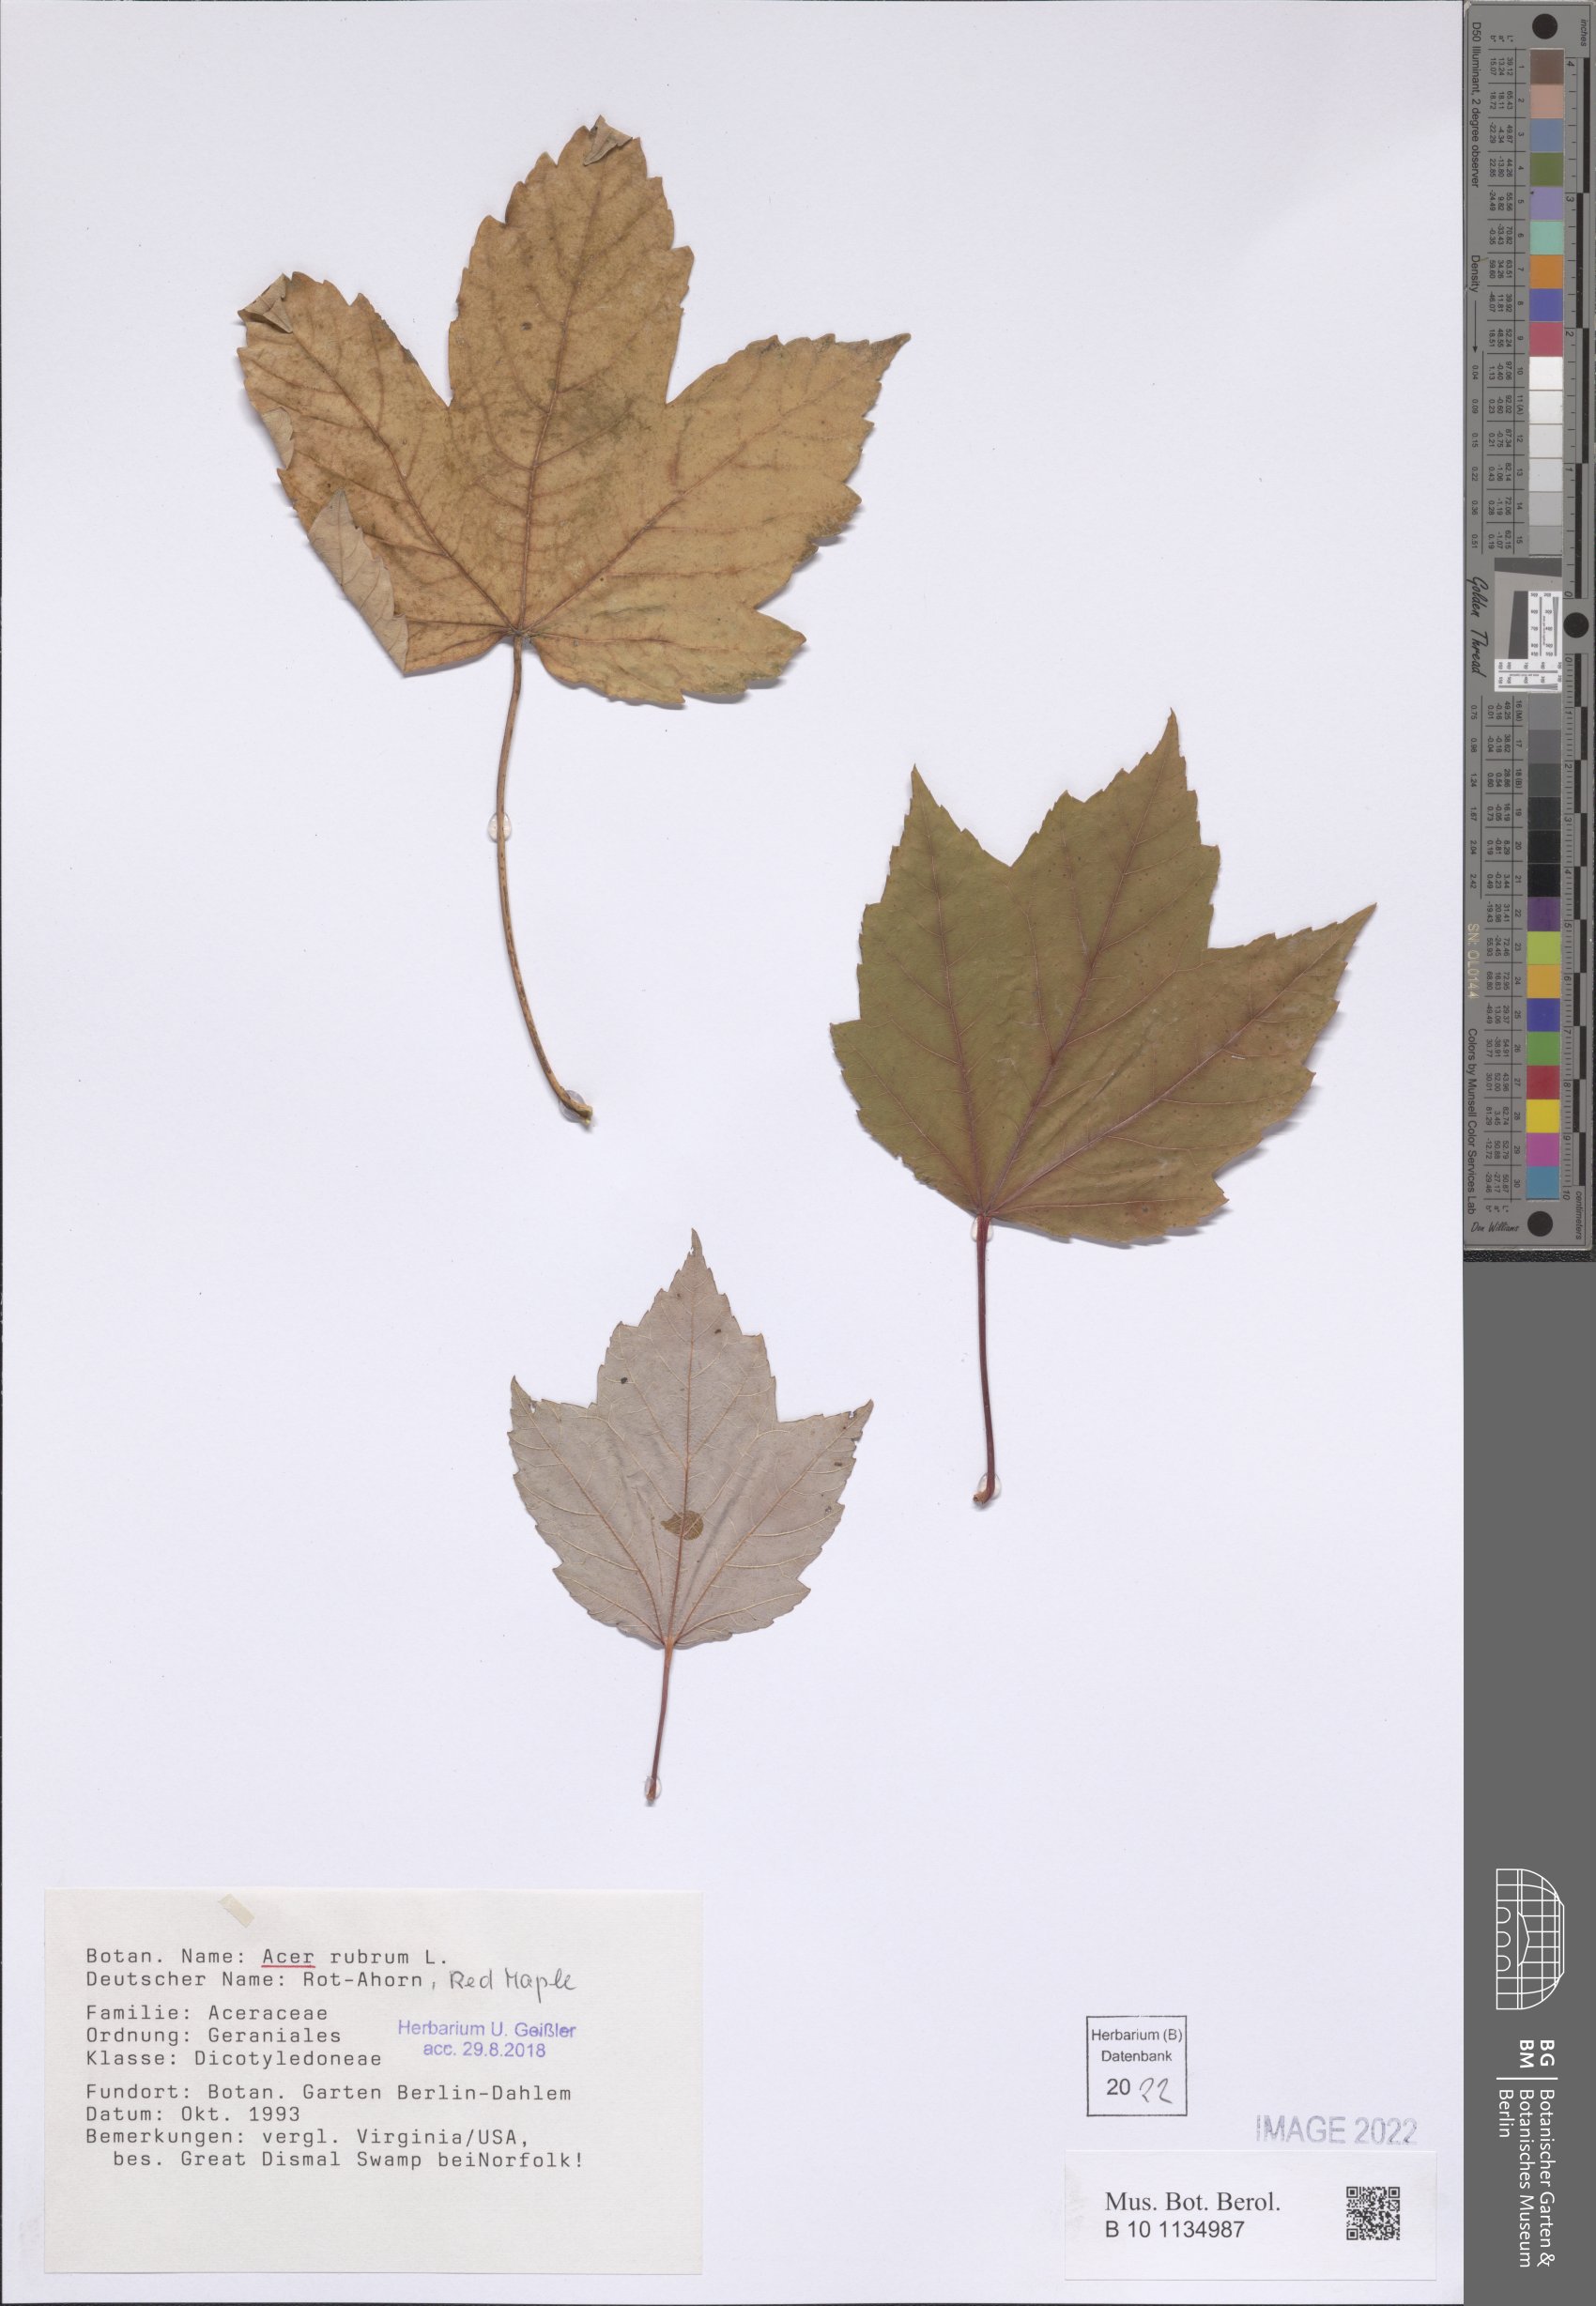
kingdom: Plantae
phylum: Tracheophyta
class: Magnoliopsida
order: Sapindales
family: Sapindaceae
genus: Acer
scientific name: Acer rubrum
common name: Red maple
